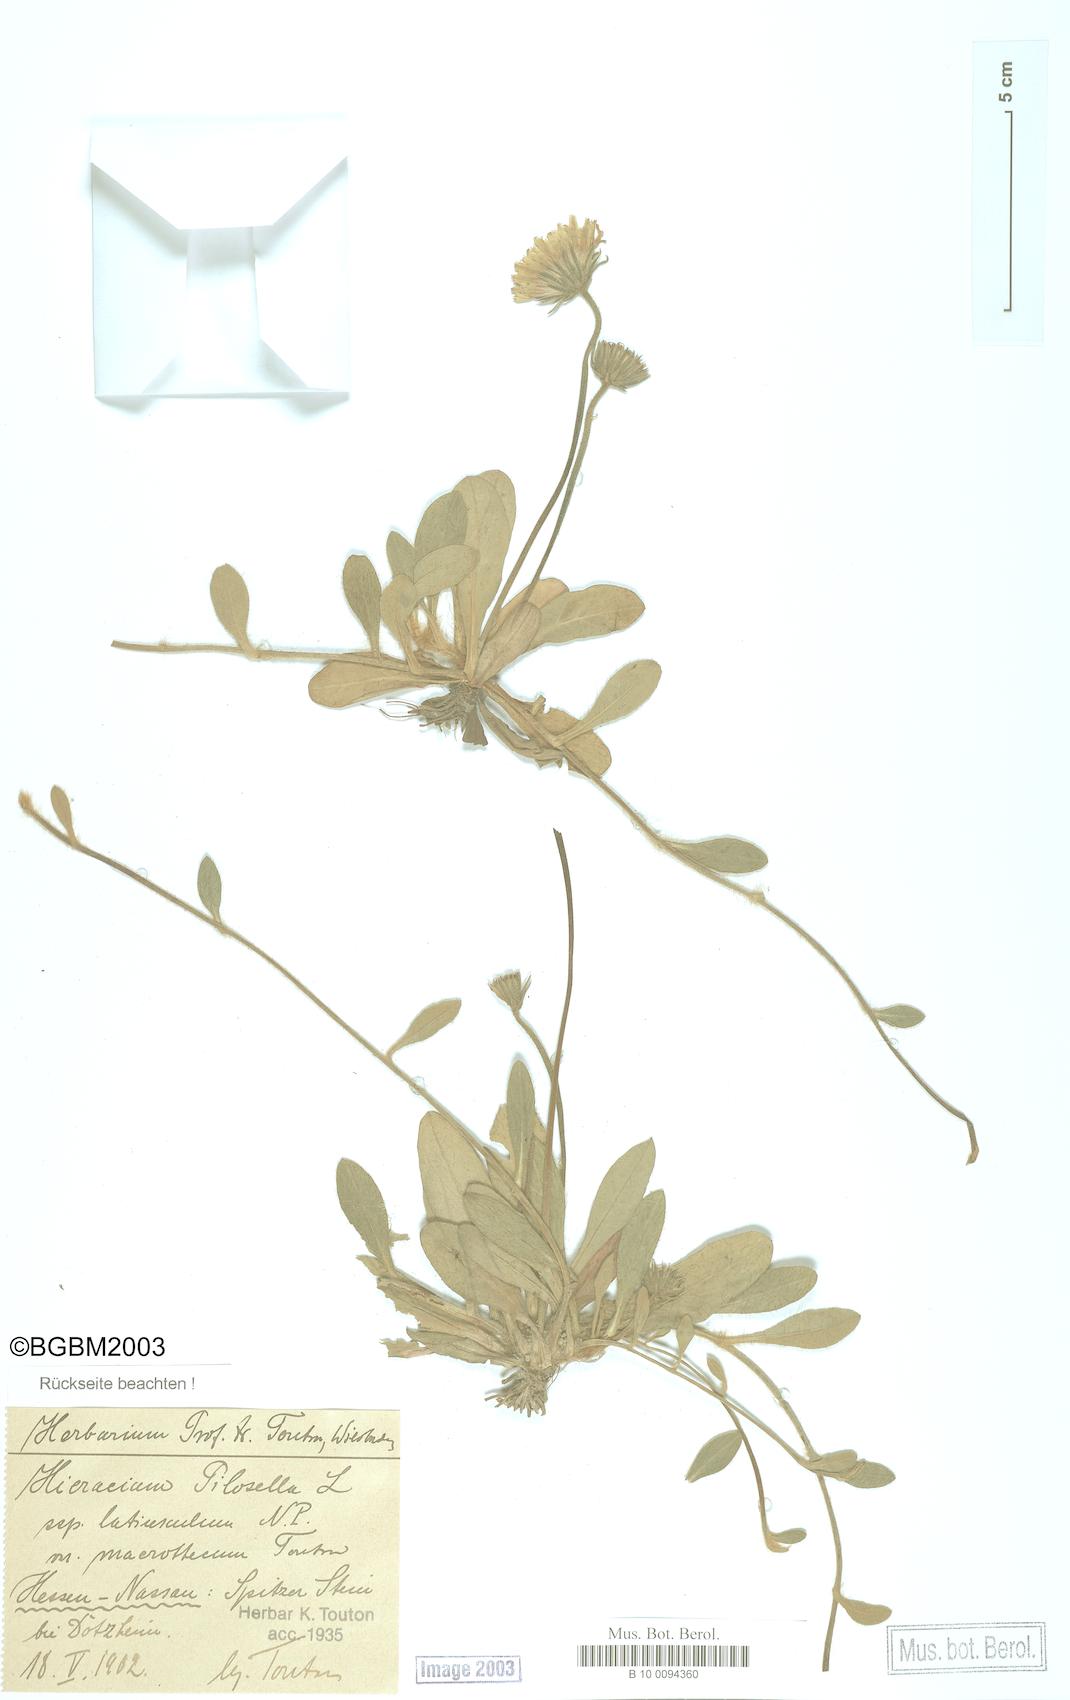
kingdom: Plantae
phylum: Tracheophyta
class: Magnoliopsida
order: Asterales
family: Asteraceae
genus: Pilosella
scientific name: Pilosella officinarum
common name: Mouse-ear hawkweed
